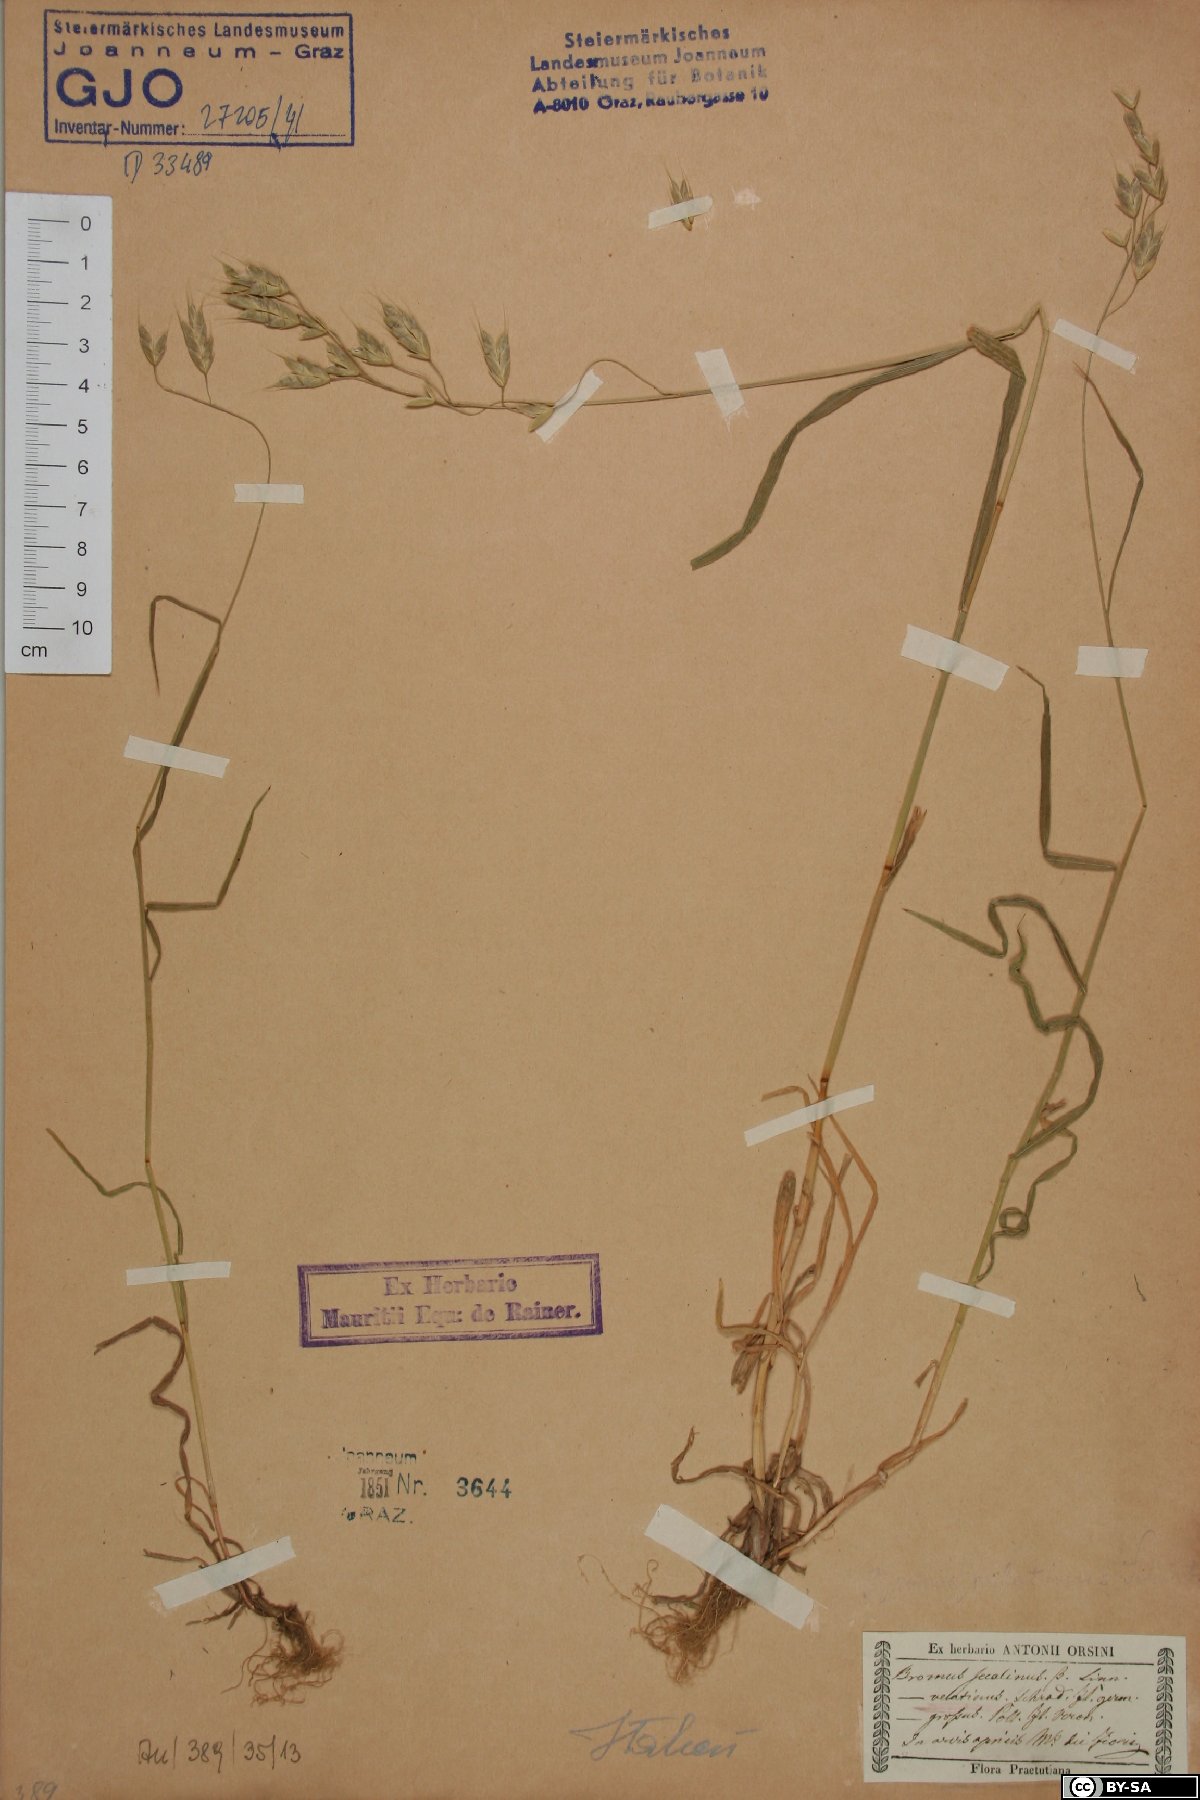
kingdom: Plantae
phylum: Tracheophyta
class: Liliopsida
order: Poales
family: Poaceae
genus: Bromus
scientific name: Bromus secalinus
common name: Rye brome
